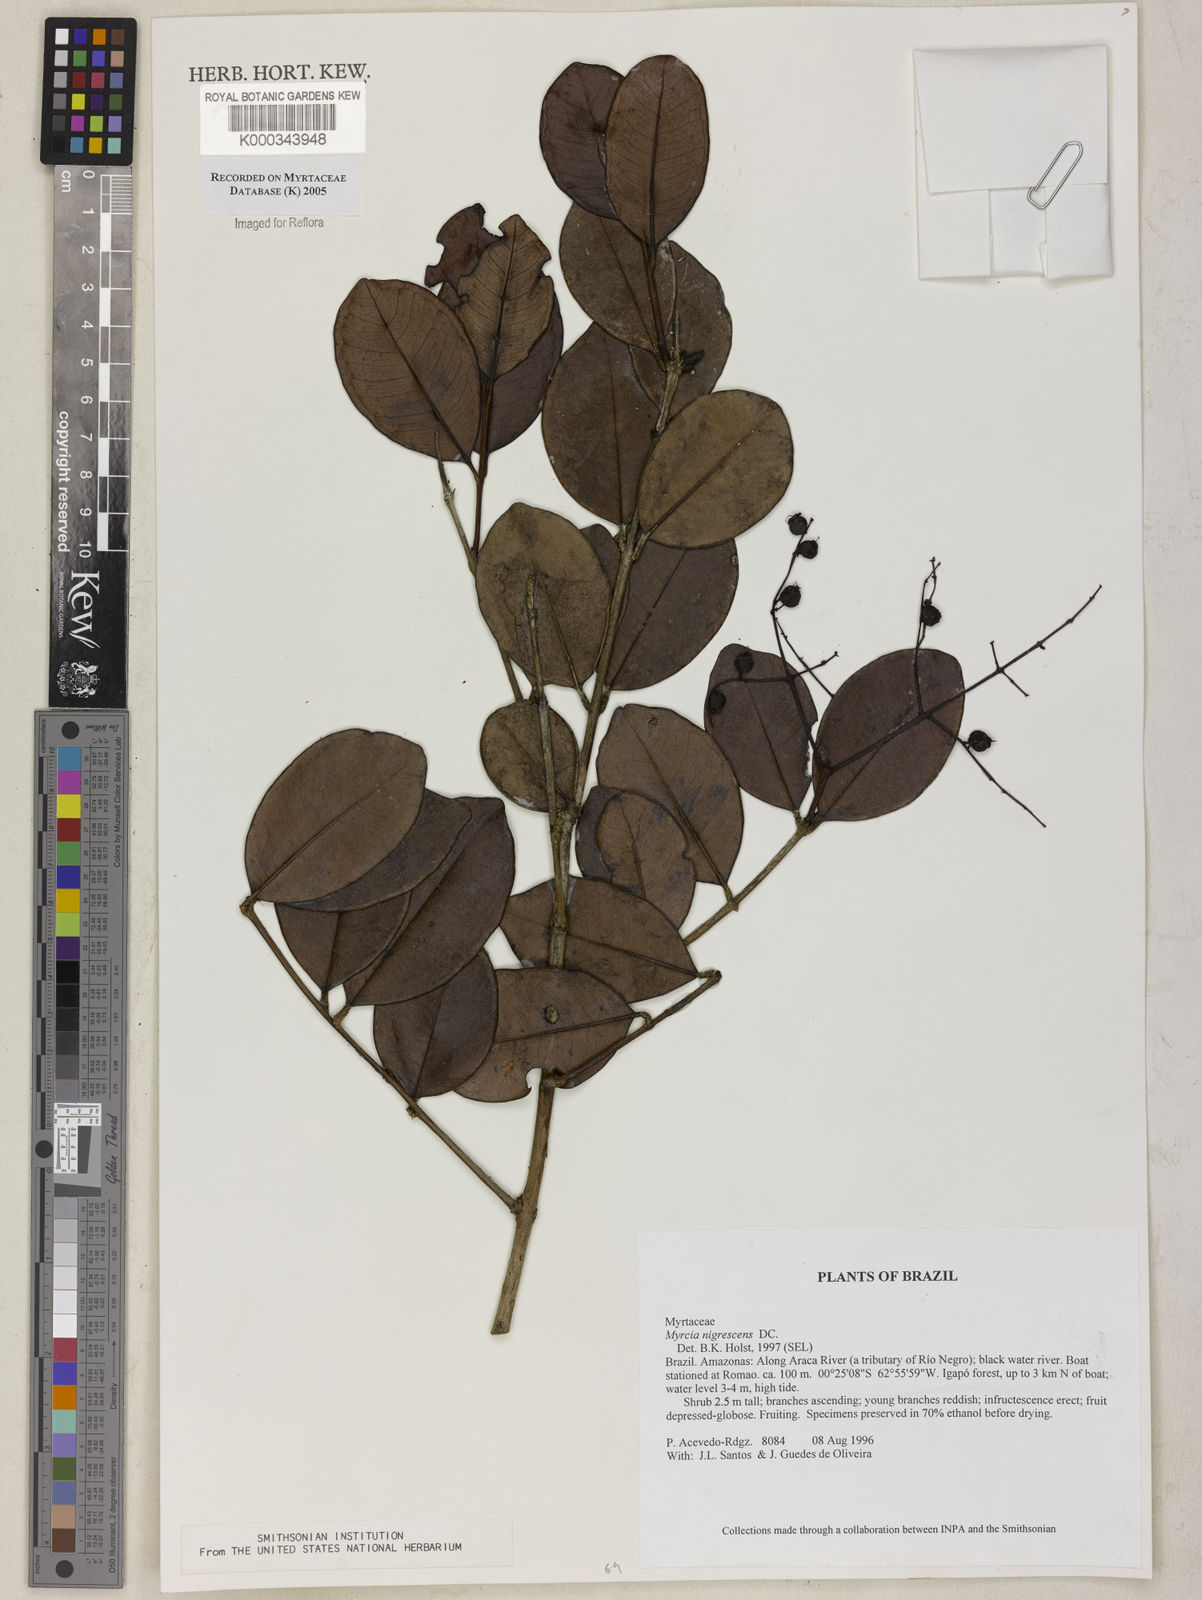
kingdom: Plantae
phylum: Tracheophyta
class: Magnoliopsida
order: Myrtales
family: Myrtaceae
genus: Myrcia
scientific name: Myrcia umbraticola
